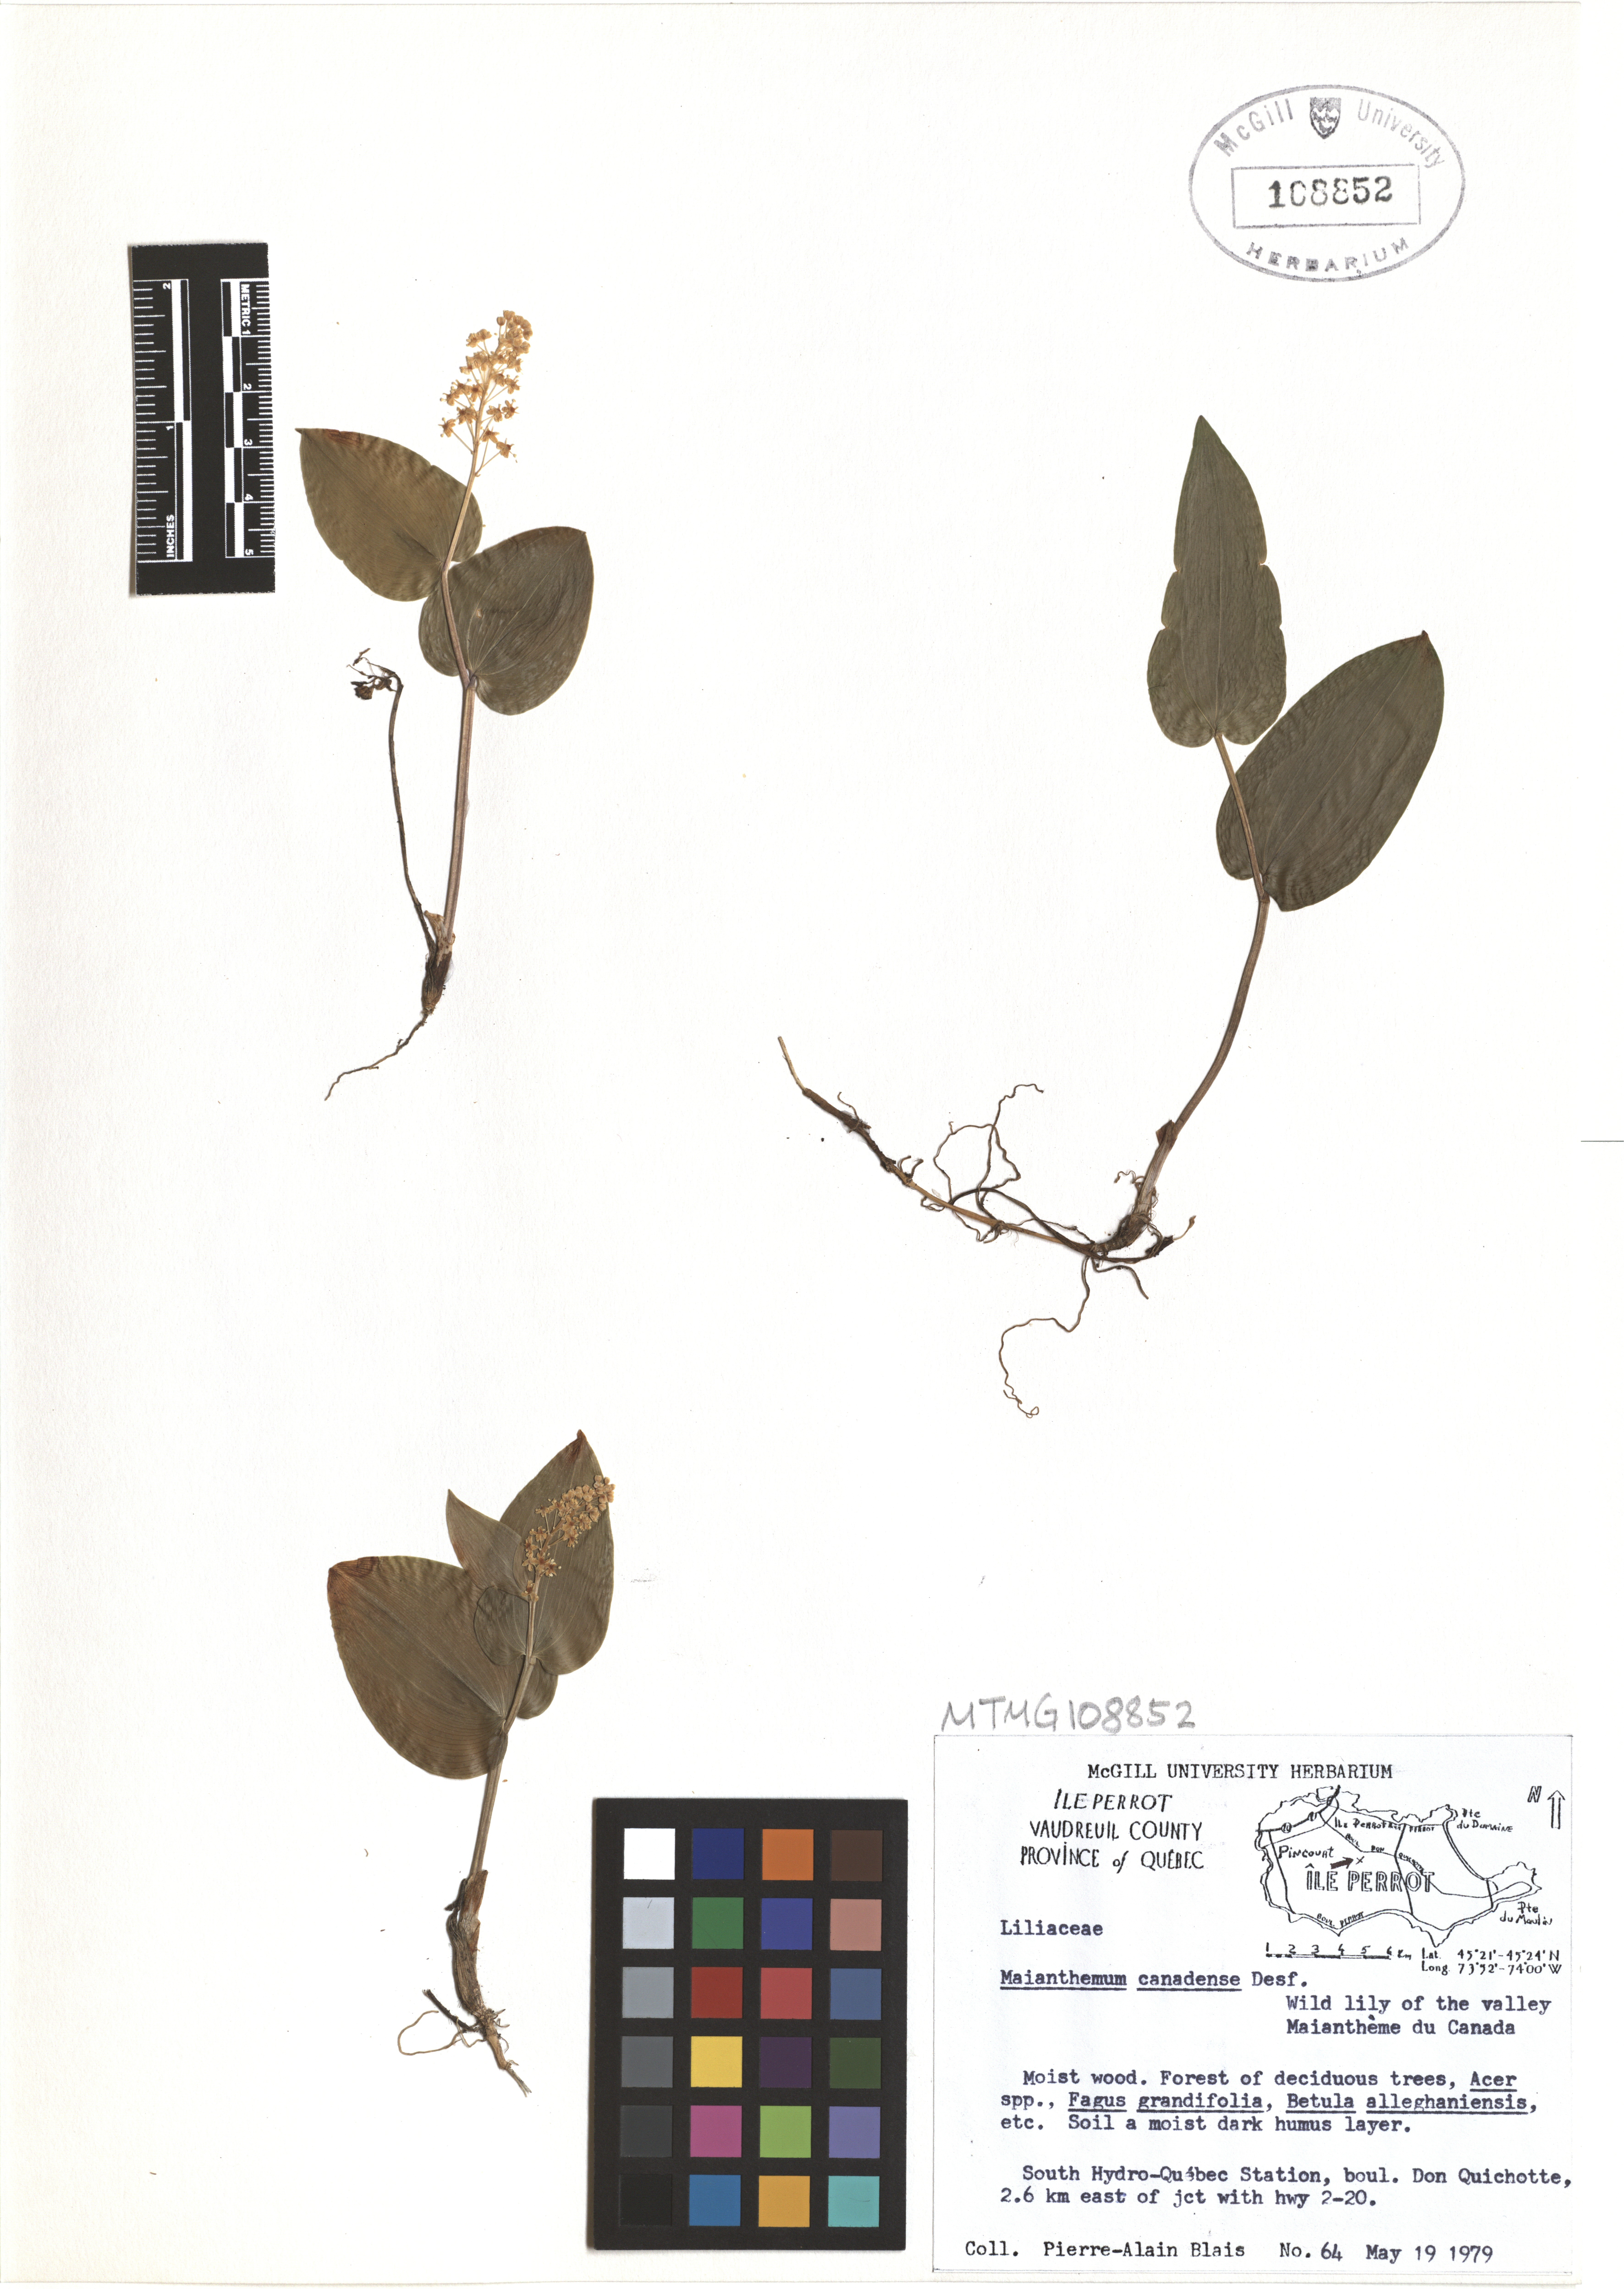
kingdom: Plantae
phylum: Tracheophyta
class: Liliopsida
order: Asparagales
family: Asparagaceae
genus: Maianthemum
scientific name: Maianthemum canadense
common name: False lily-of-the-valley
